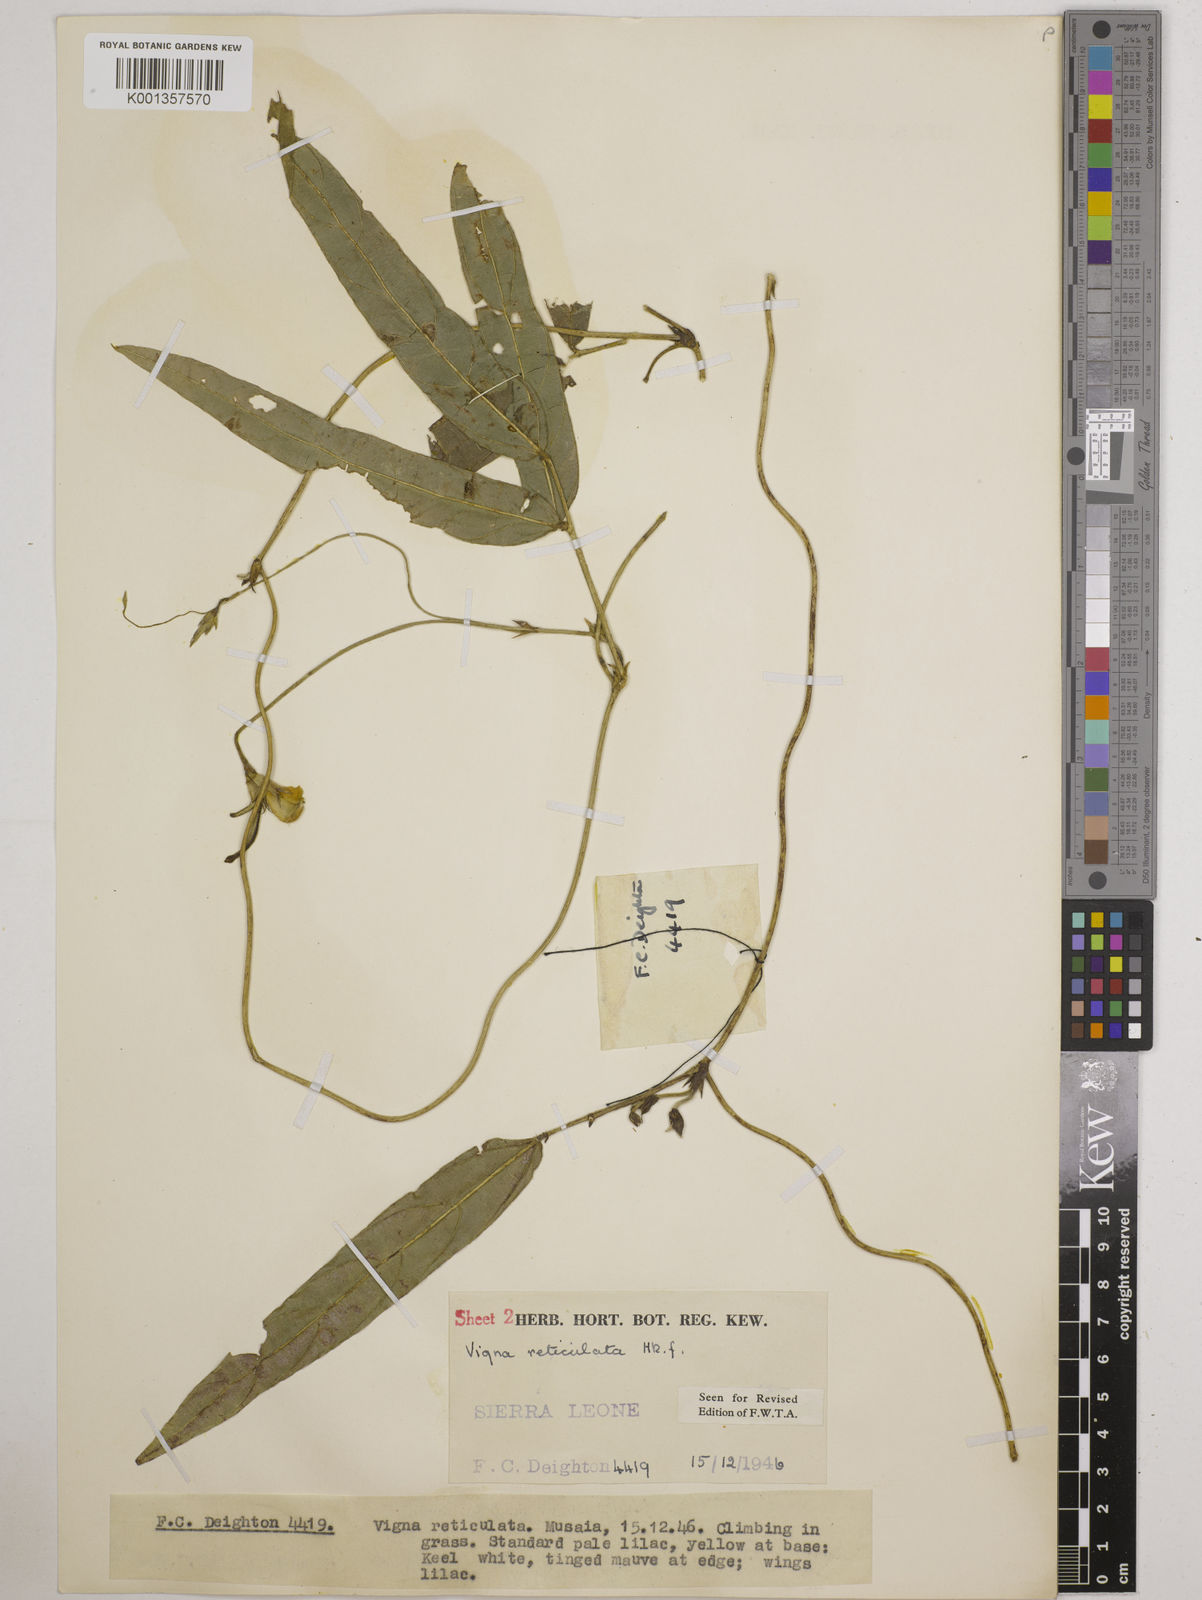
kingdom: Plantae
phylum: Tracheophyta
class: Magnoliopsida
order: Fabales
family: Fabaceae
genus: Vigna
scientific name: Vigna reticulata
